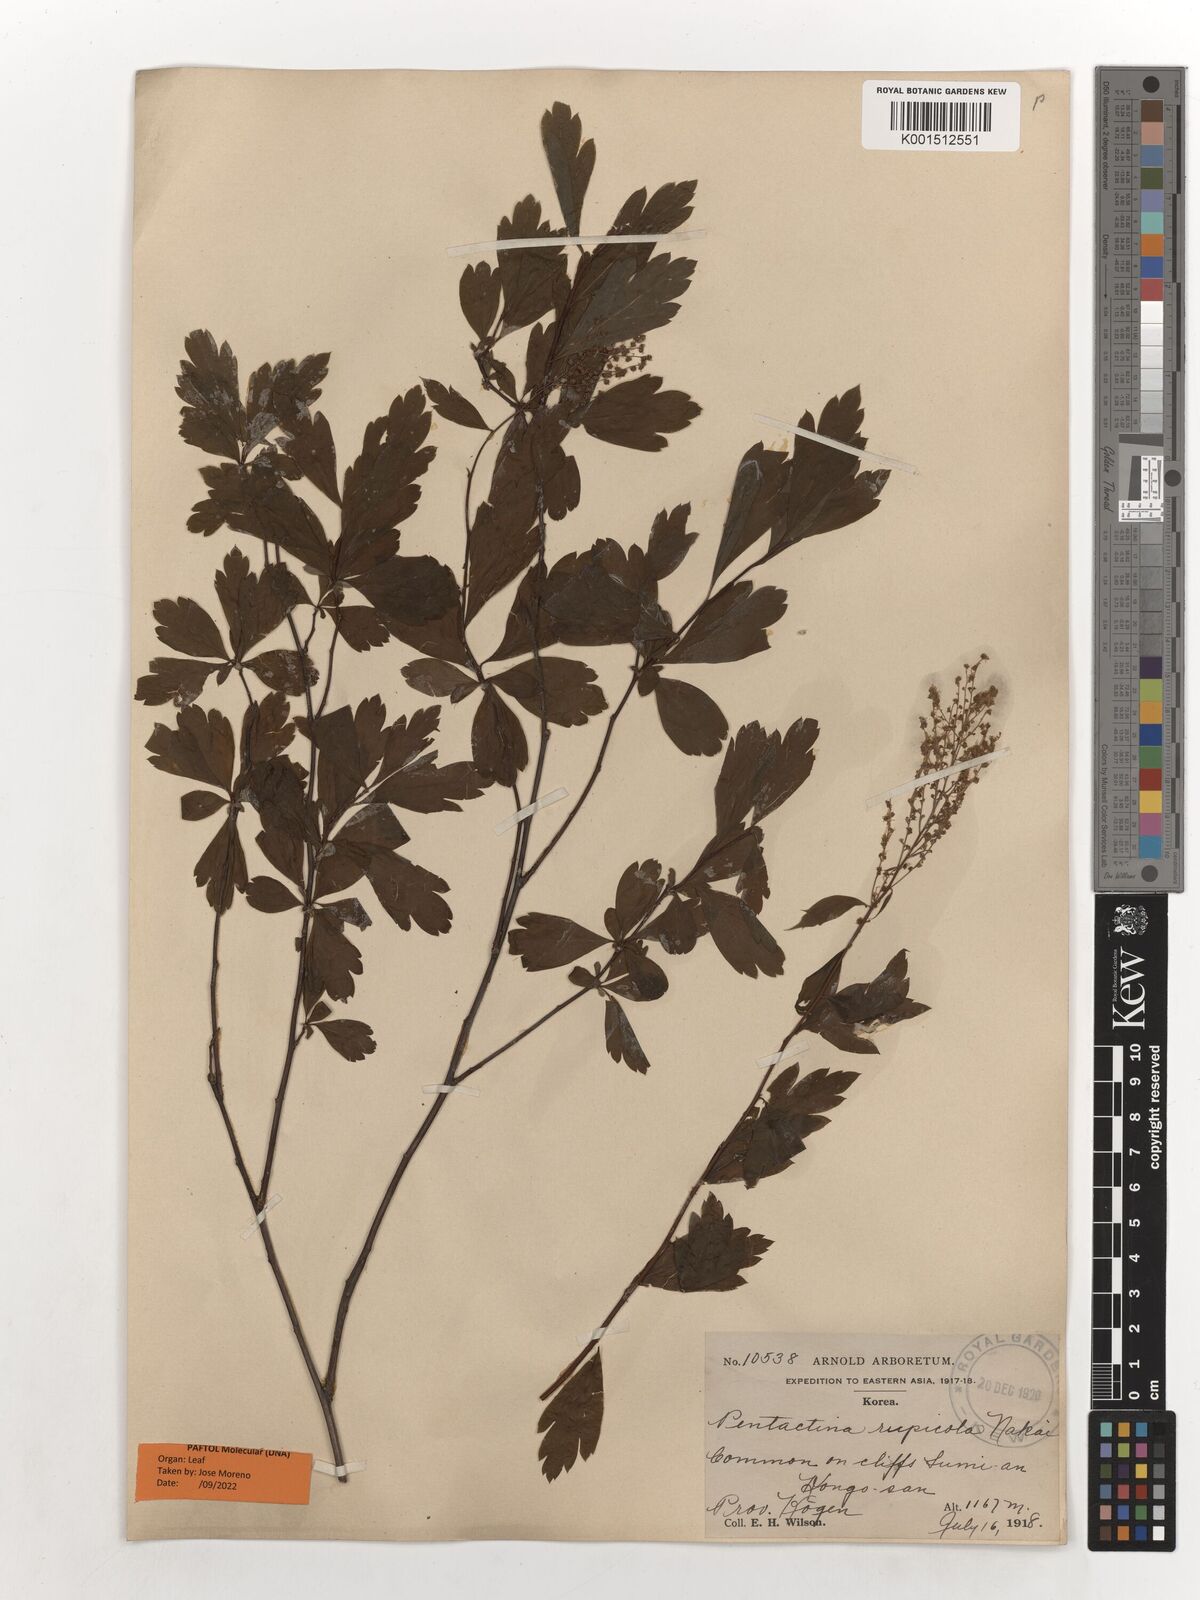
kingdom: Plantae
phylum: Tracheophyta
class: Magnoliopsida
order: Rosales
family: Rosaceae
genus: Pentactina
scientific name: Pentactina rupicola
